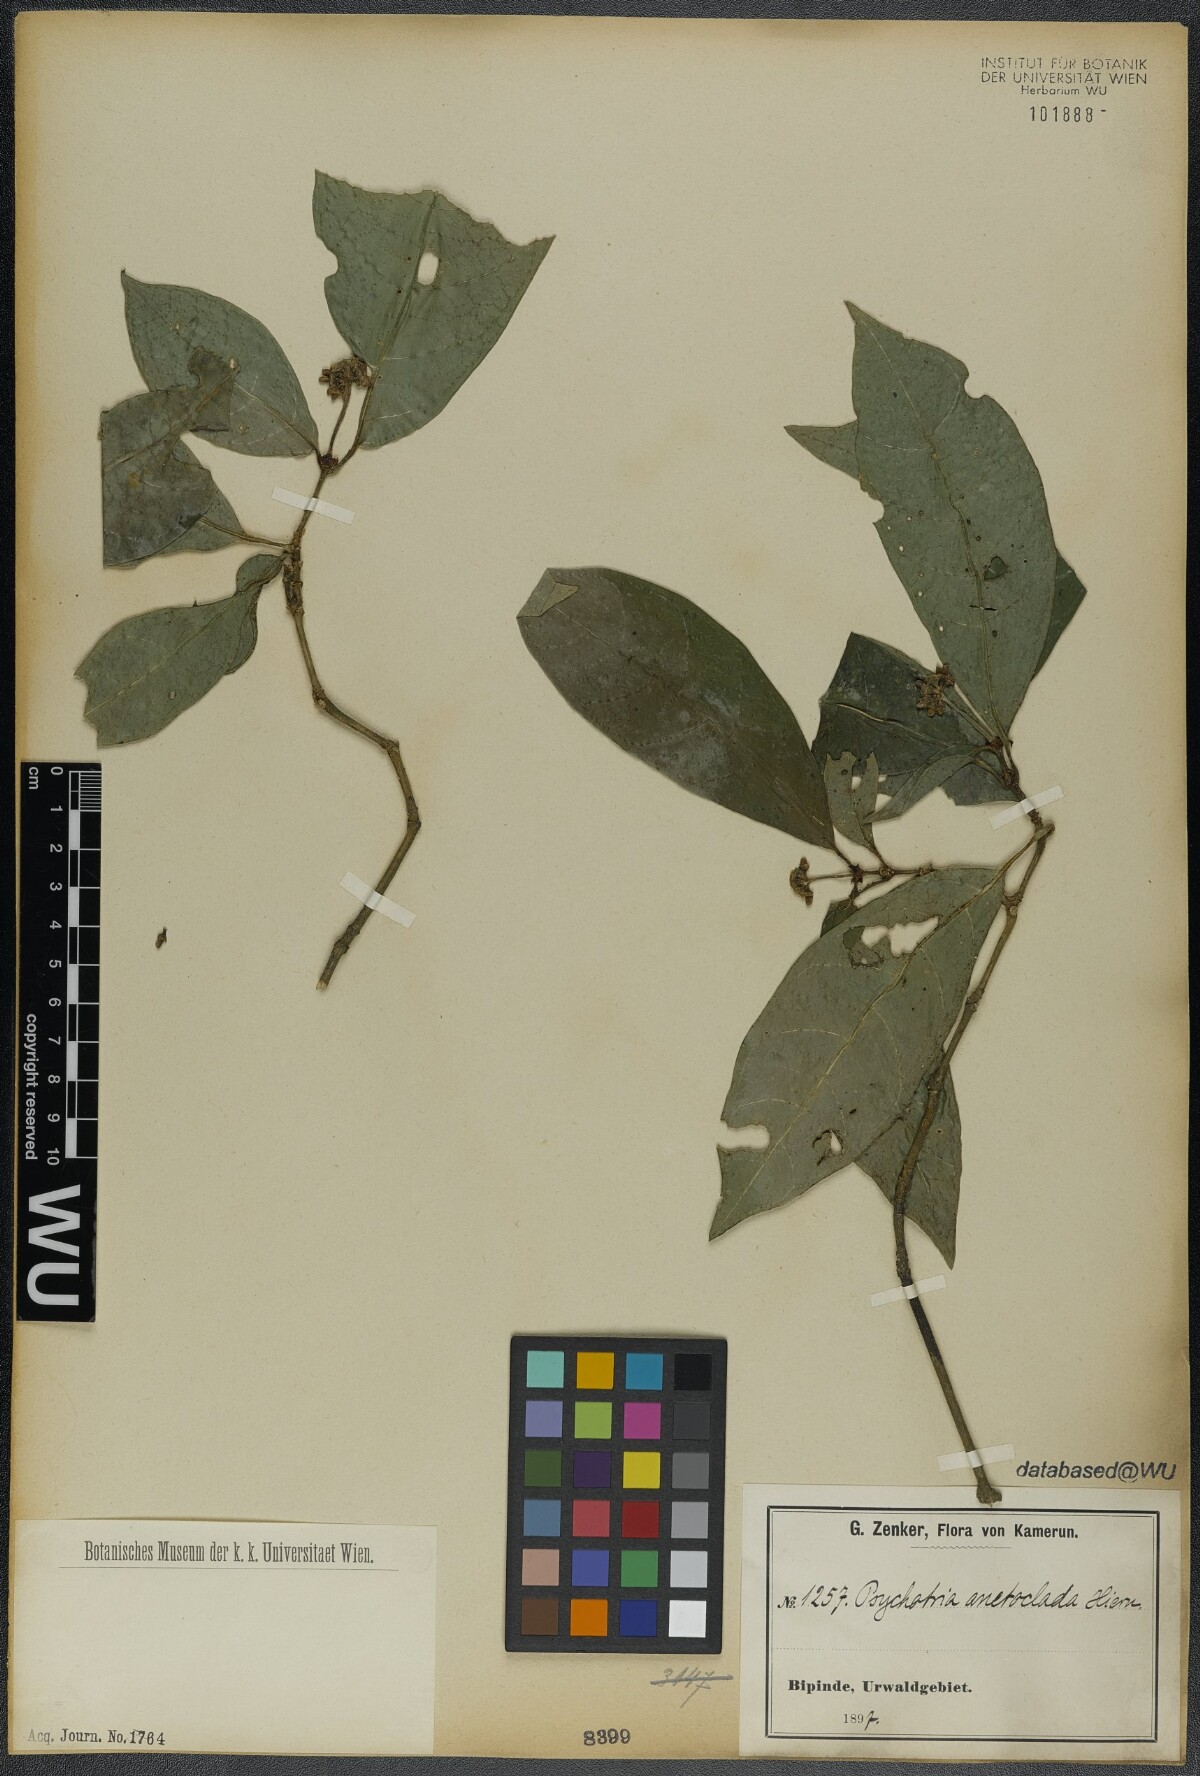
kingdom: Plantae
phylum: Tracheophyta
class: Magnoliopsida
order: Gentianales
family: Rubiaceae
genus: Psychotria
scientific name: Psychotria satabiei
